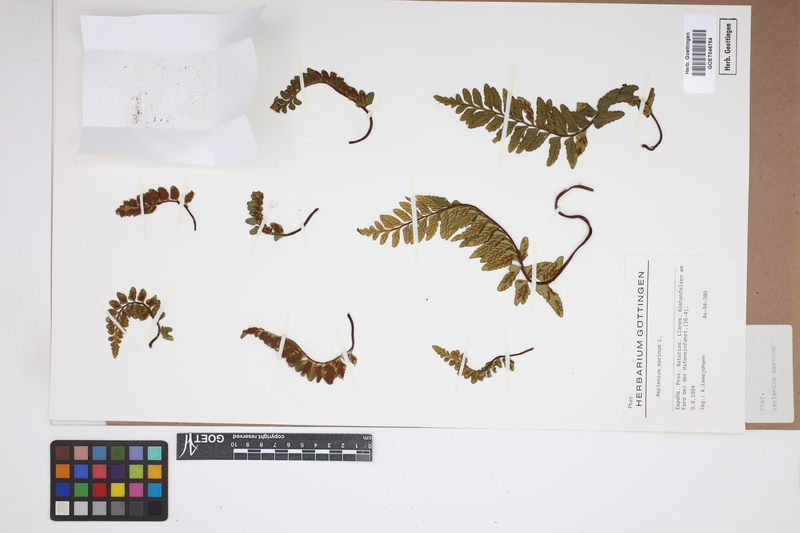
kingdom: Plantae
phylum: Tracheophyta
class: Polypodiopsida
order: Polypodiales
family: Aspleniaceae
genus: Asplenium
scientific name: Asplenium marinum
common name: Sea spleenwort
